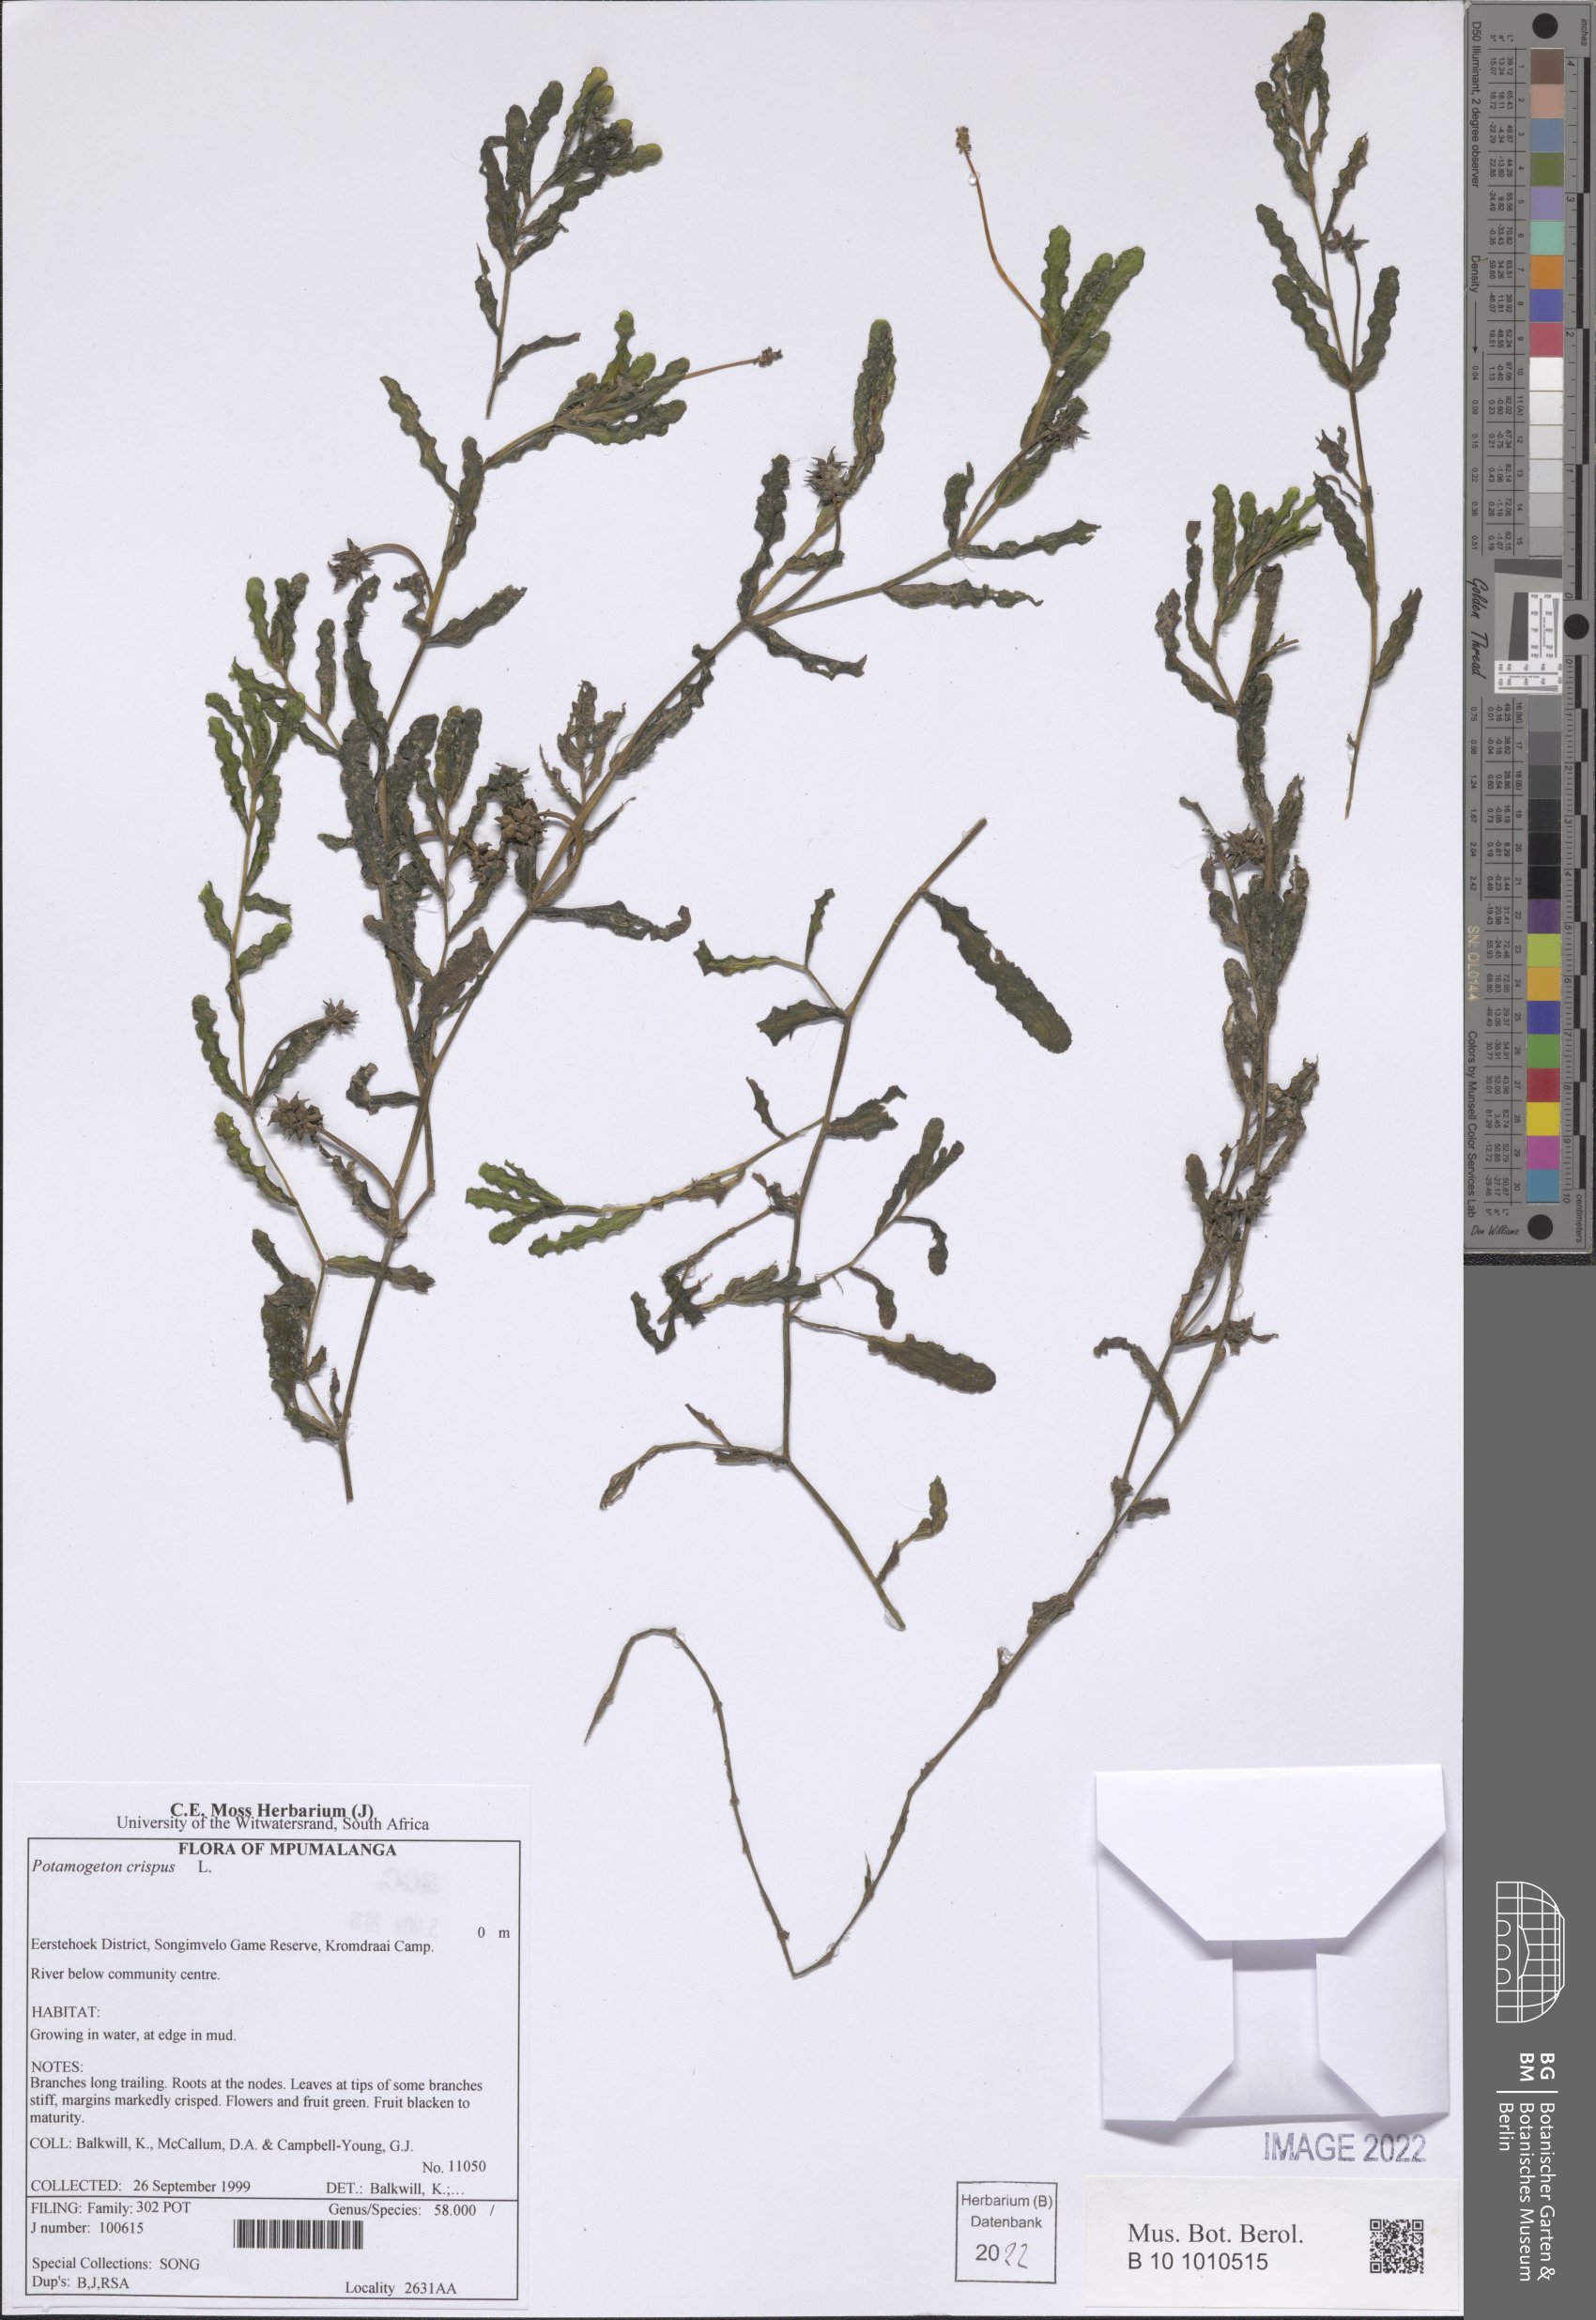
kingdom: Plantae
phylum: Tracheophyta
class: Liliopsida
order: Alismatales
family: Potamogetonaceae
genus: Potamogeton
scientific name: Potamogeton crispus
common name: Curled pondweed
